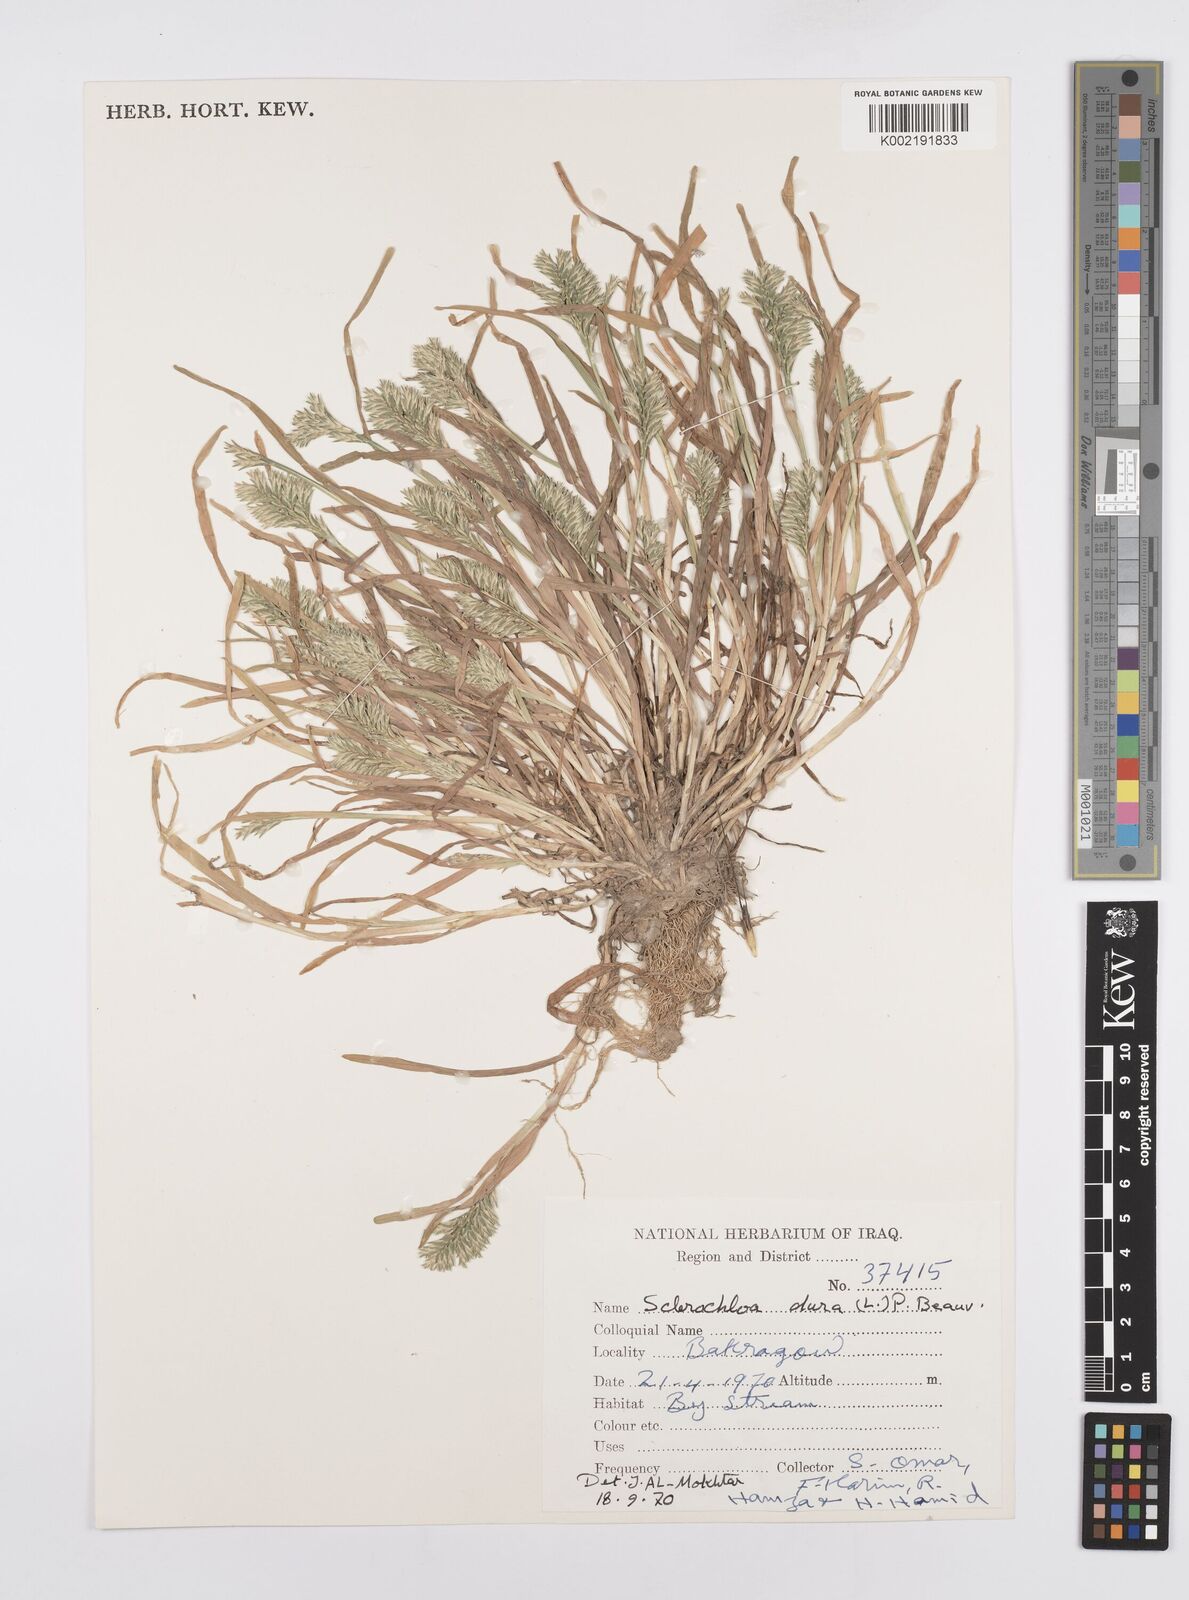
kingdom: Plantae
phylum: Tracheophyta
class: Liliopsida
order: Poales
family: Poaceae
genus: Sclerochloa
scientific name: Sclerochloa dura
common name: Common hardgrass
